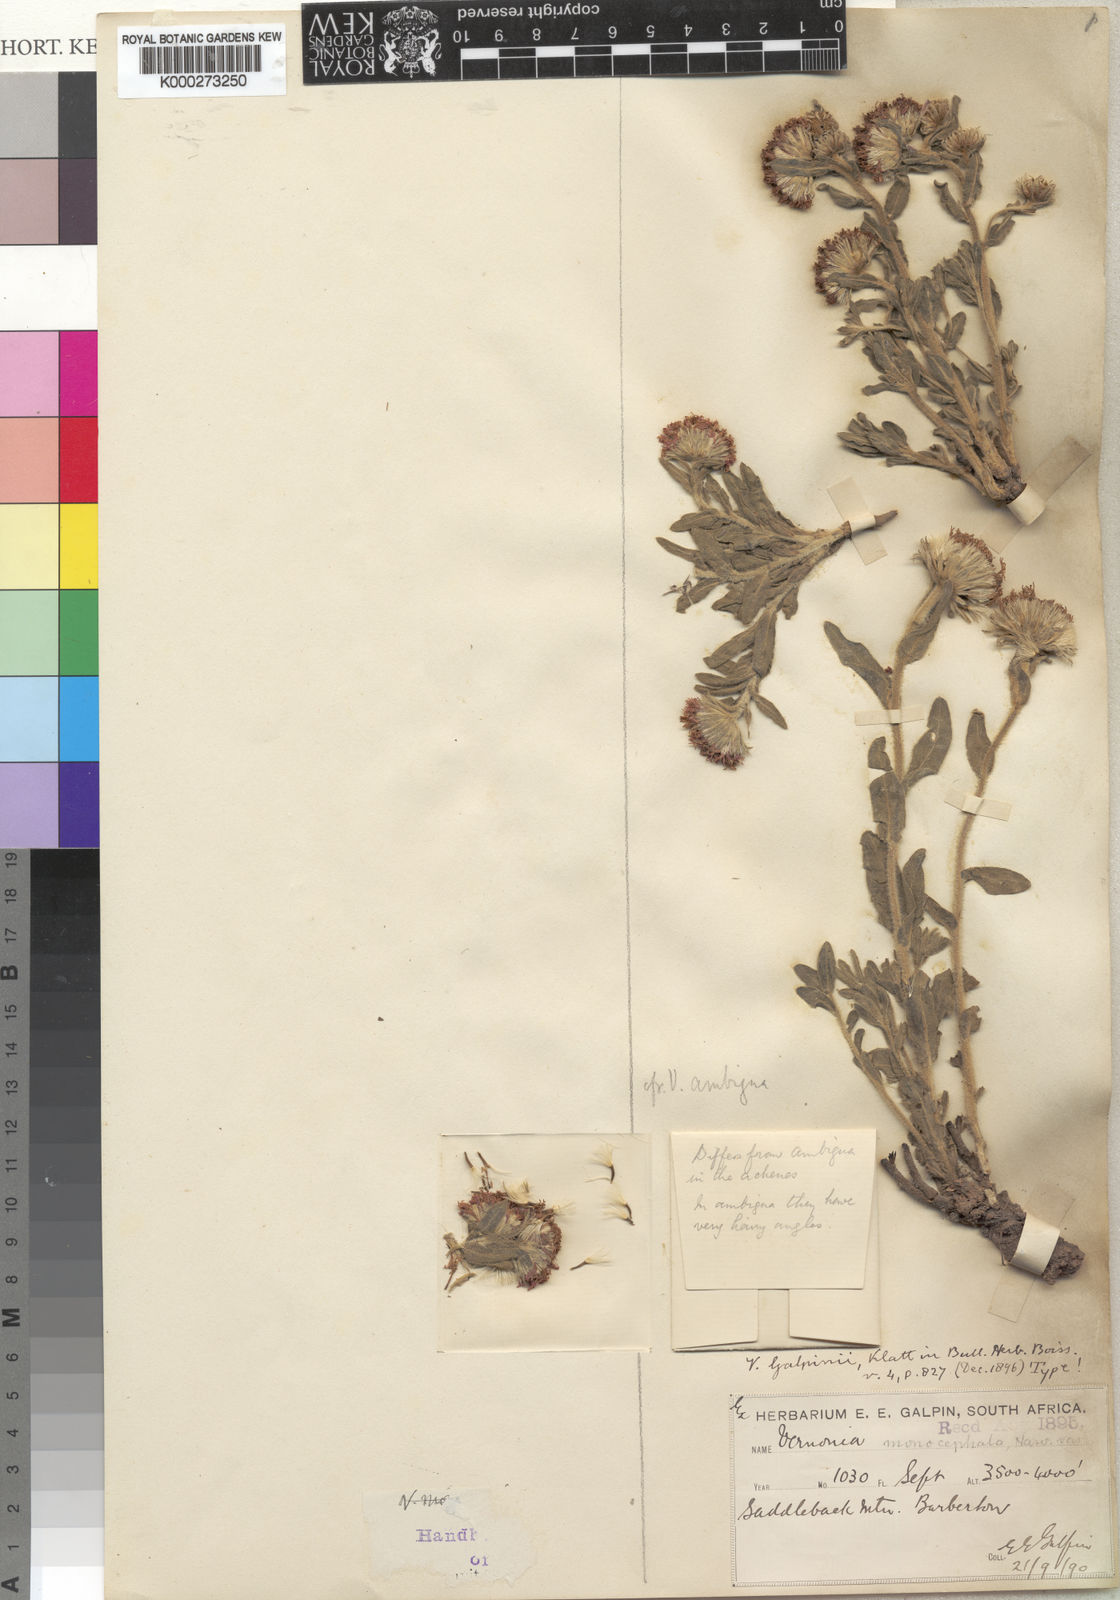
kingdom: Plantae
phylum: Tracheophyta
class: Magnoliopsida
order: Asterales
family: Asteraceae
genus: Pseudopegolettia
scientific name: Pseudopegolettia tenella
